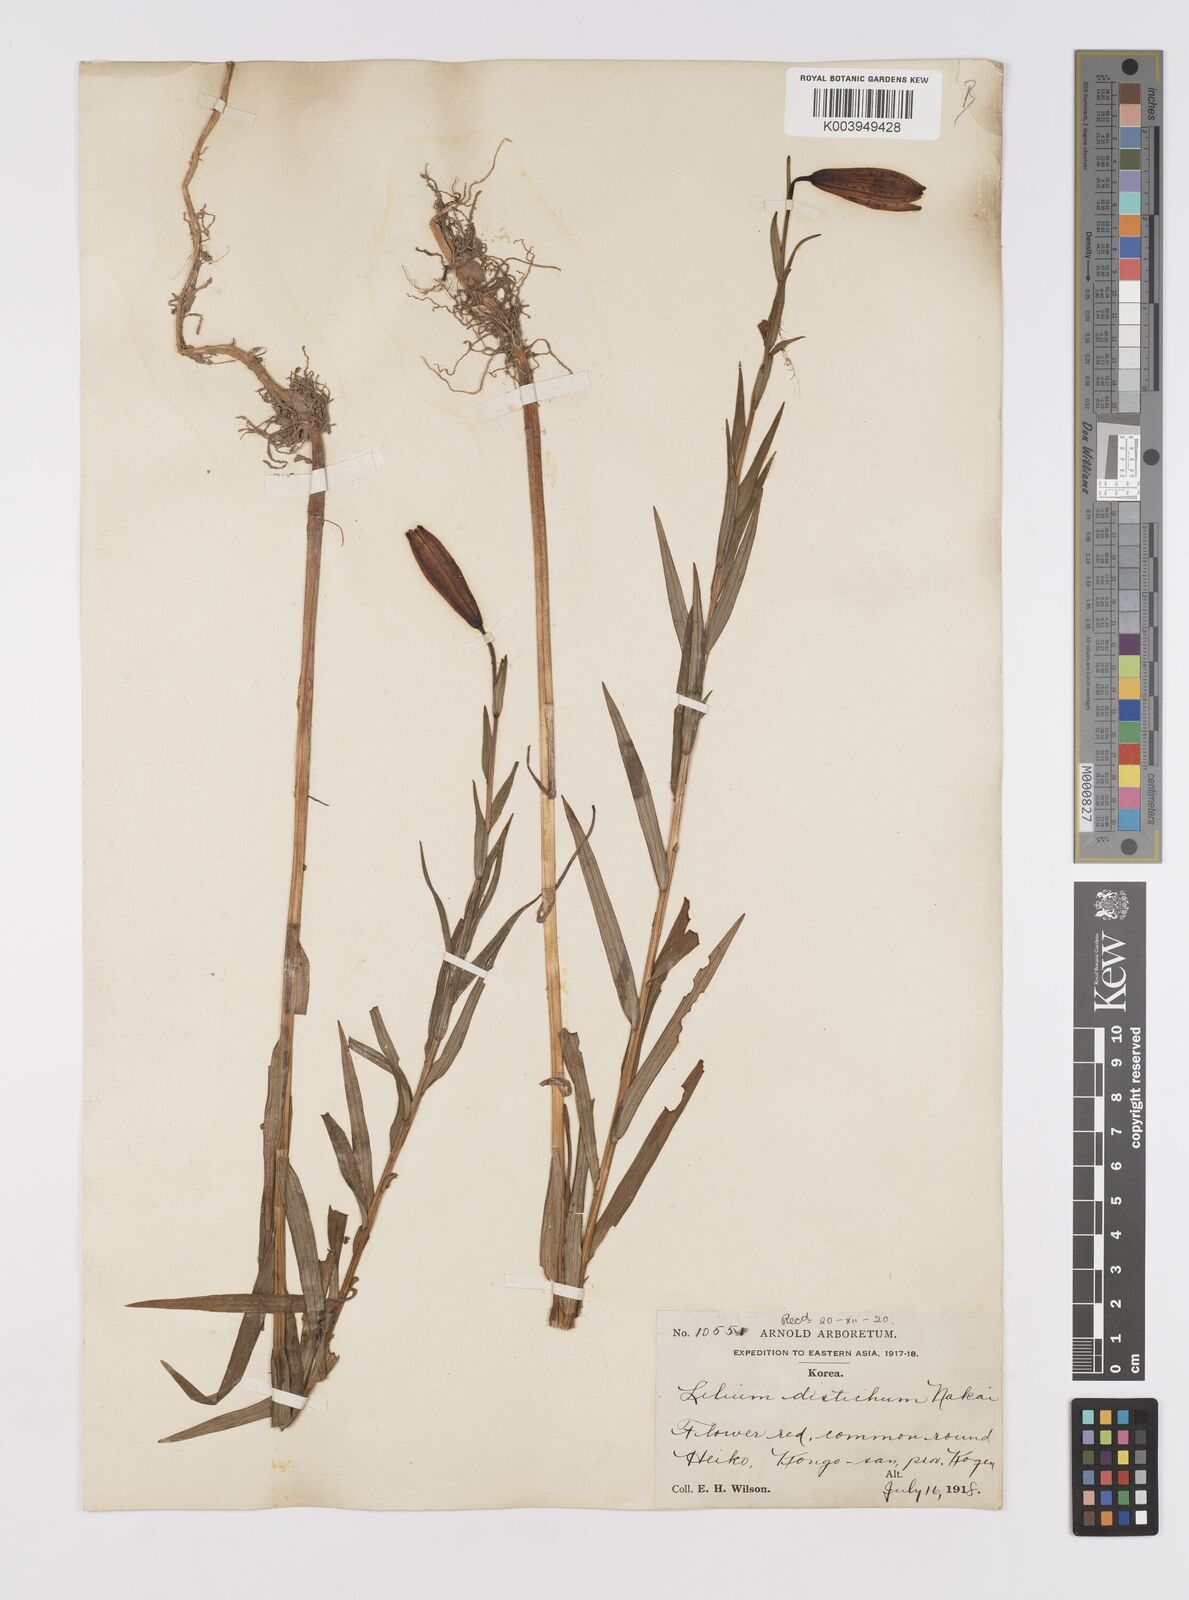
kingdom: Plantae
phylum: Tracheophyta
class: Liliopsida
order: Liliales
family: Liliaceae
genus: Lilium
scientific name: Lilium amabile
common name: Korean lily
